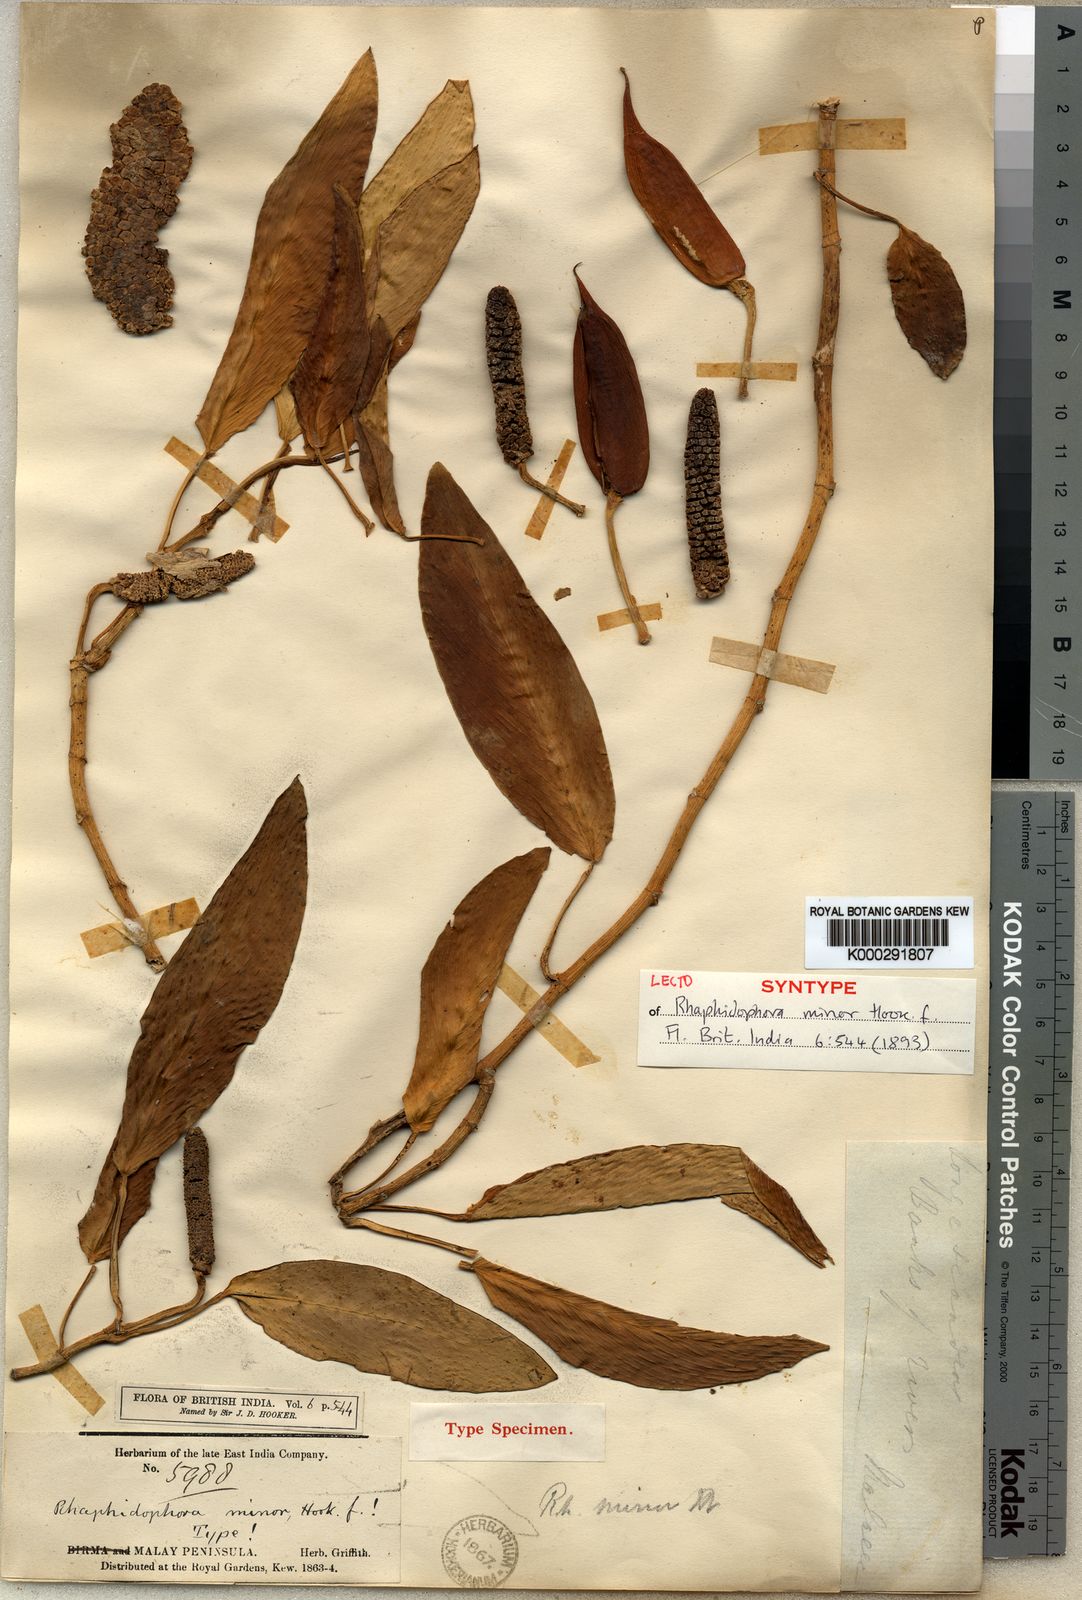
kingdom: Plantae
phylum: Tracheophyta
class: Liliopsida
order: Alismatales
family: Araceae
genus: Rhaphidophora
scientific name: Rhaphidophora minor
